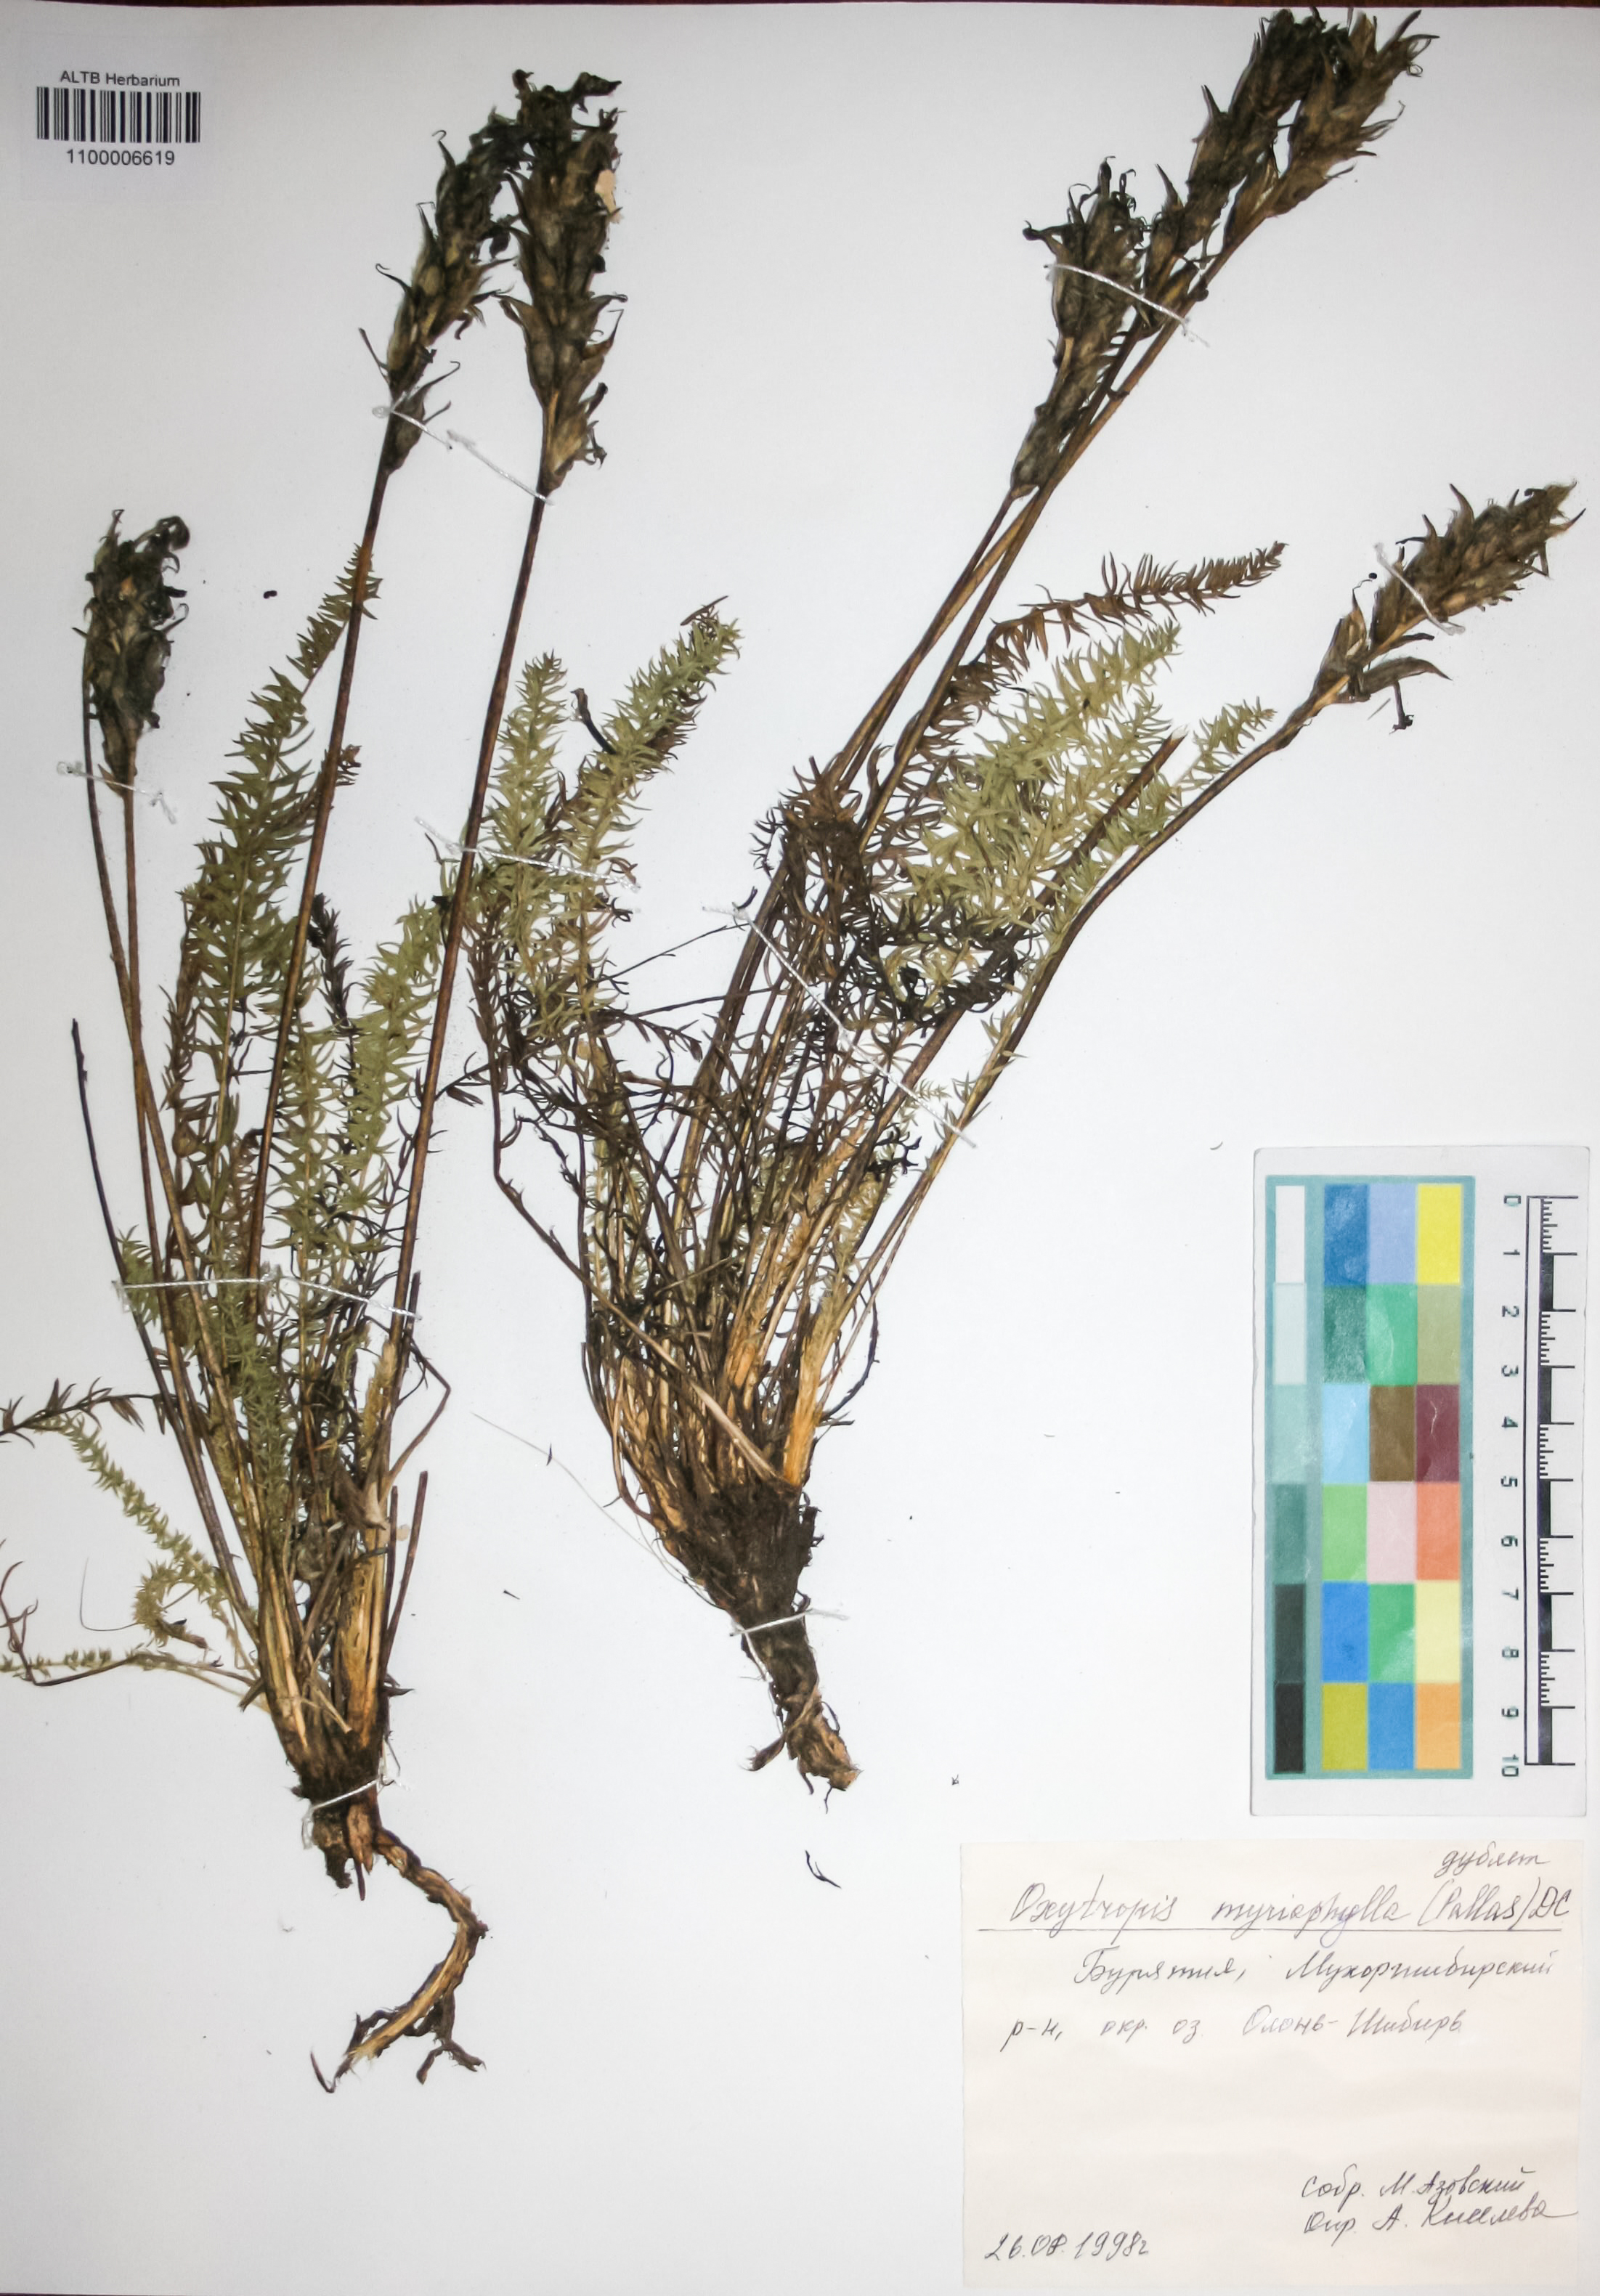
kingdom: Plantae
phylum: Tracheophyta
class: Magnoliopsida
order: Fabales
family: Fabaceae
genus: Oxytropis
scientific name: Oxytropis myriophylla
